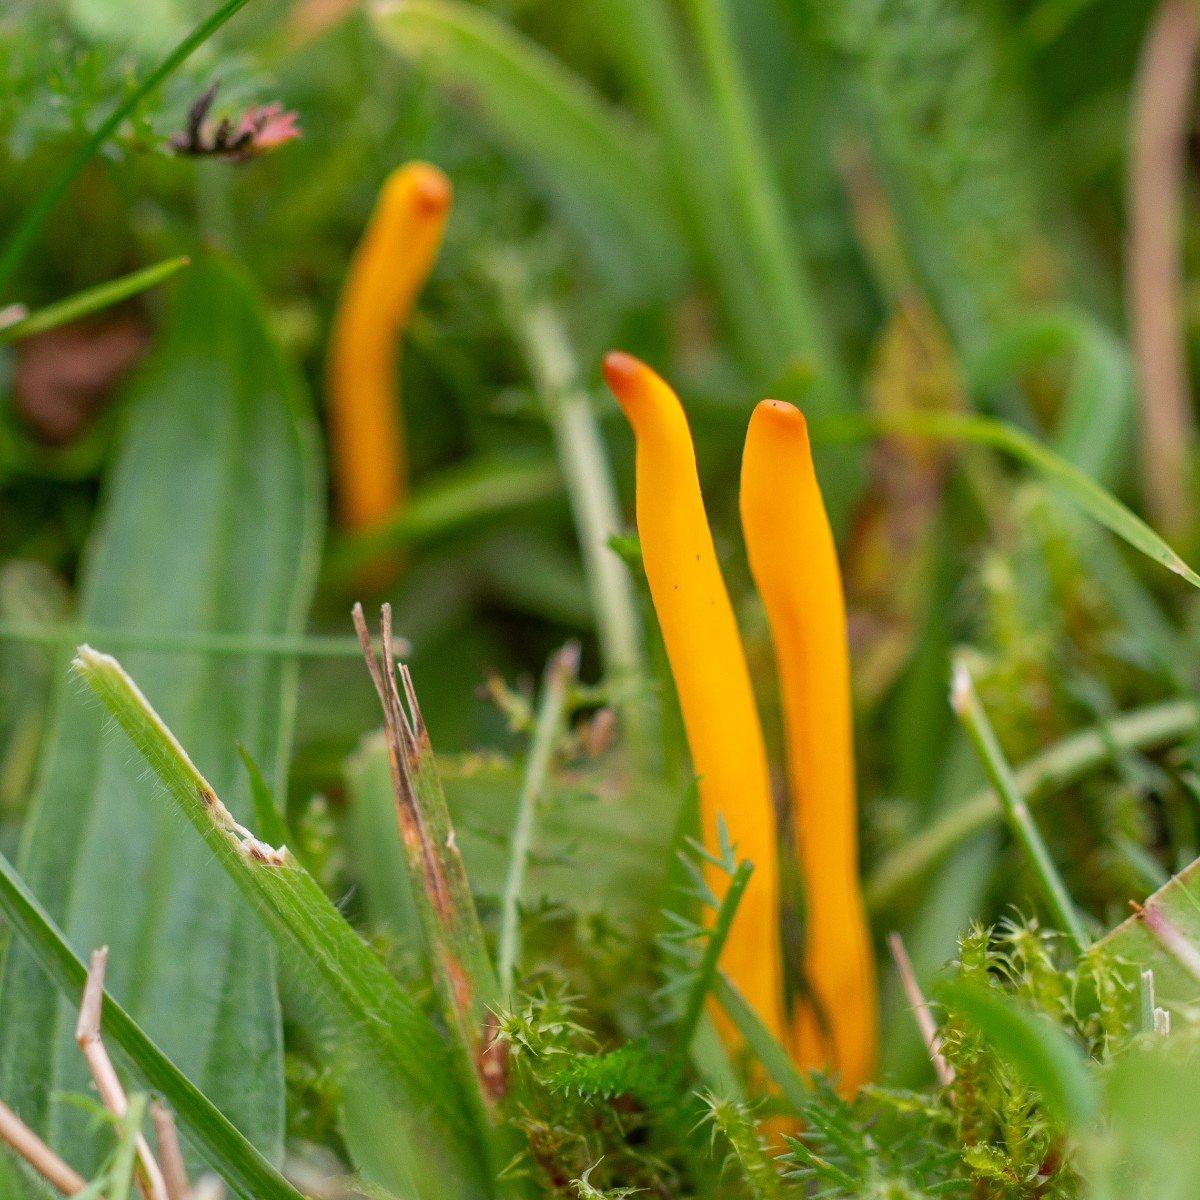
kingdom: Fungi
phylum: Basidiomycota
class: Agaricomycetes
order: Agaricales
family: Clavariaceae
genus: Clavulinopsis
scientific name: Clavulinopsis
